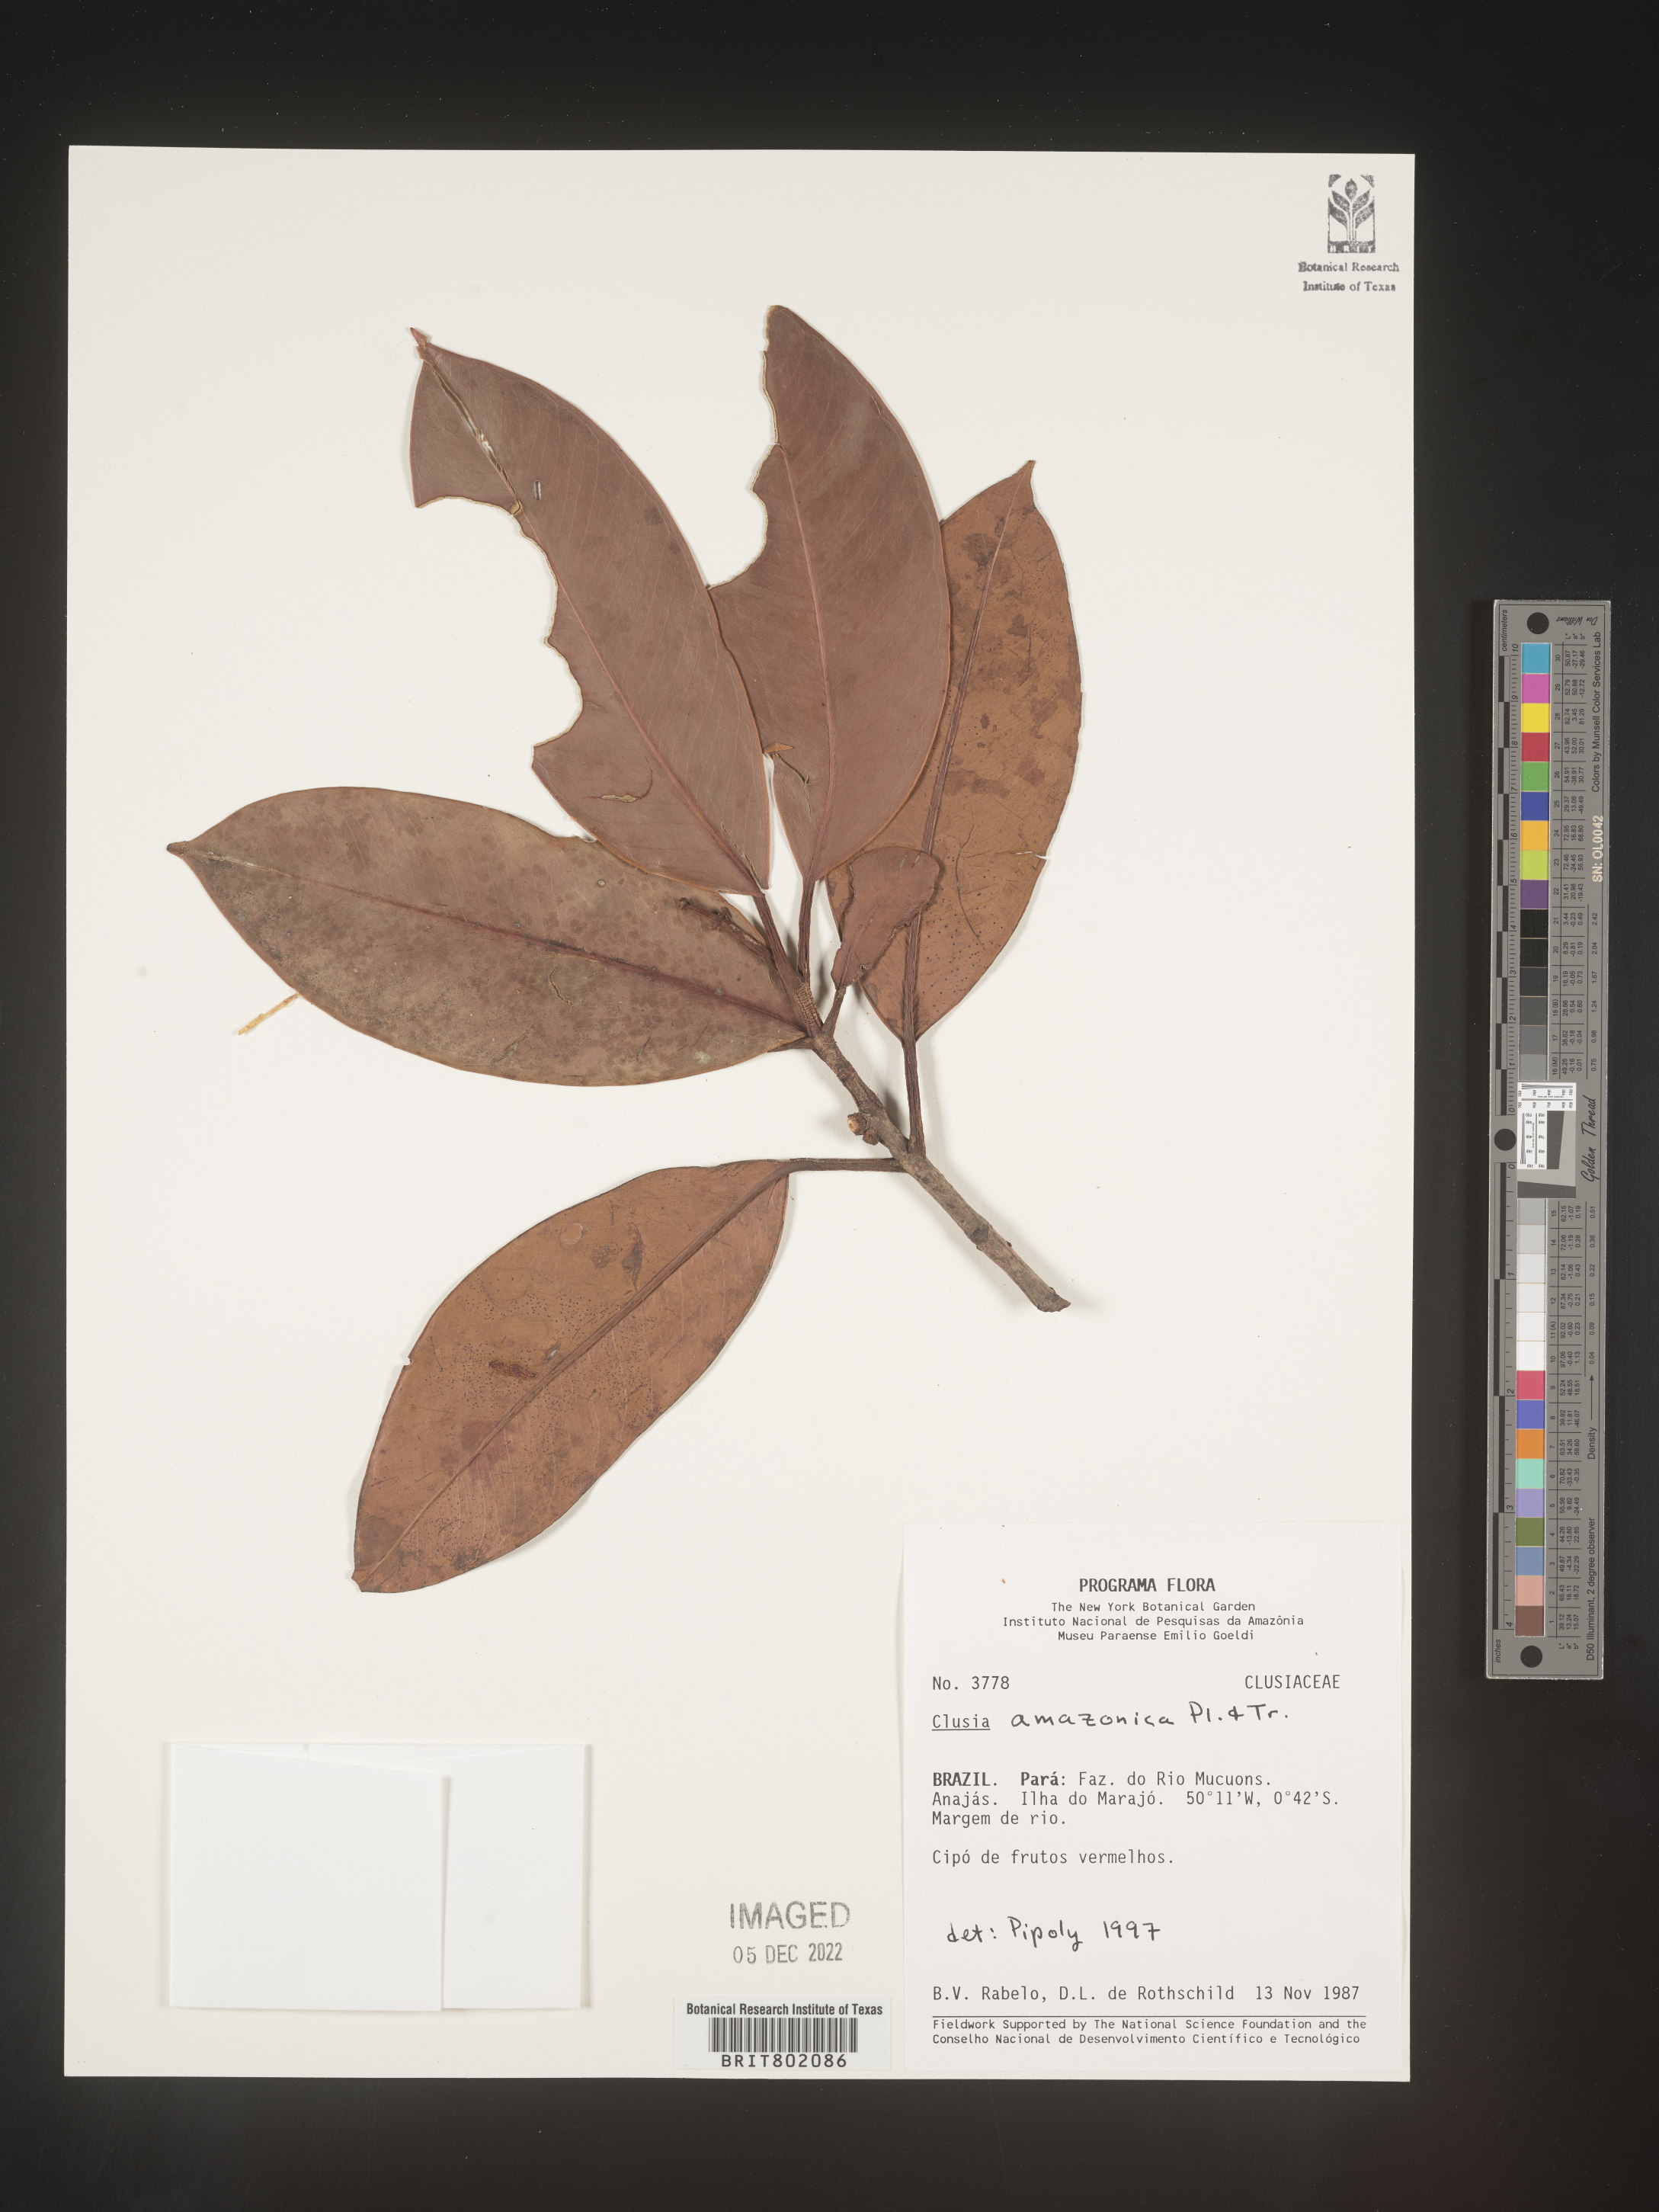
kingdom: Plantae
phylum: Tracheophyta
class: Magnoliopsida
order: Malpighiales
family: Clusiaceae
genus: Clusia
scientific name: Clusia amazonica
